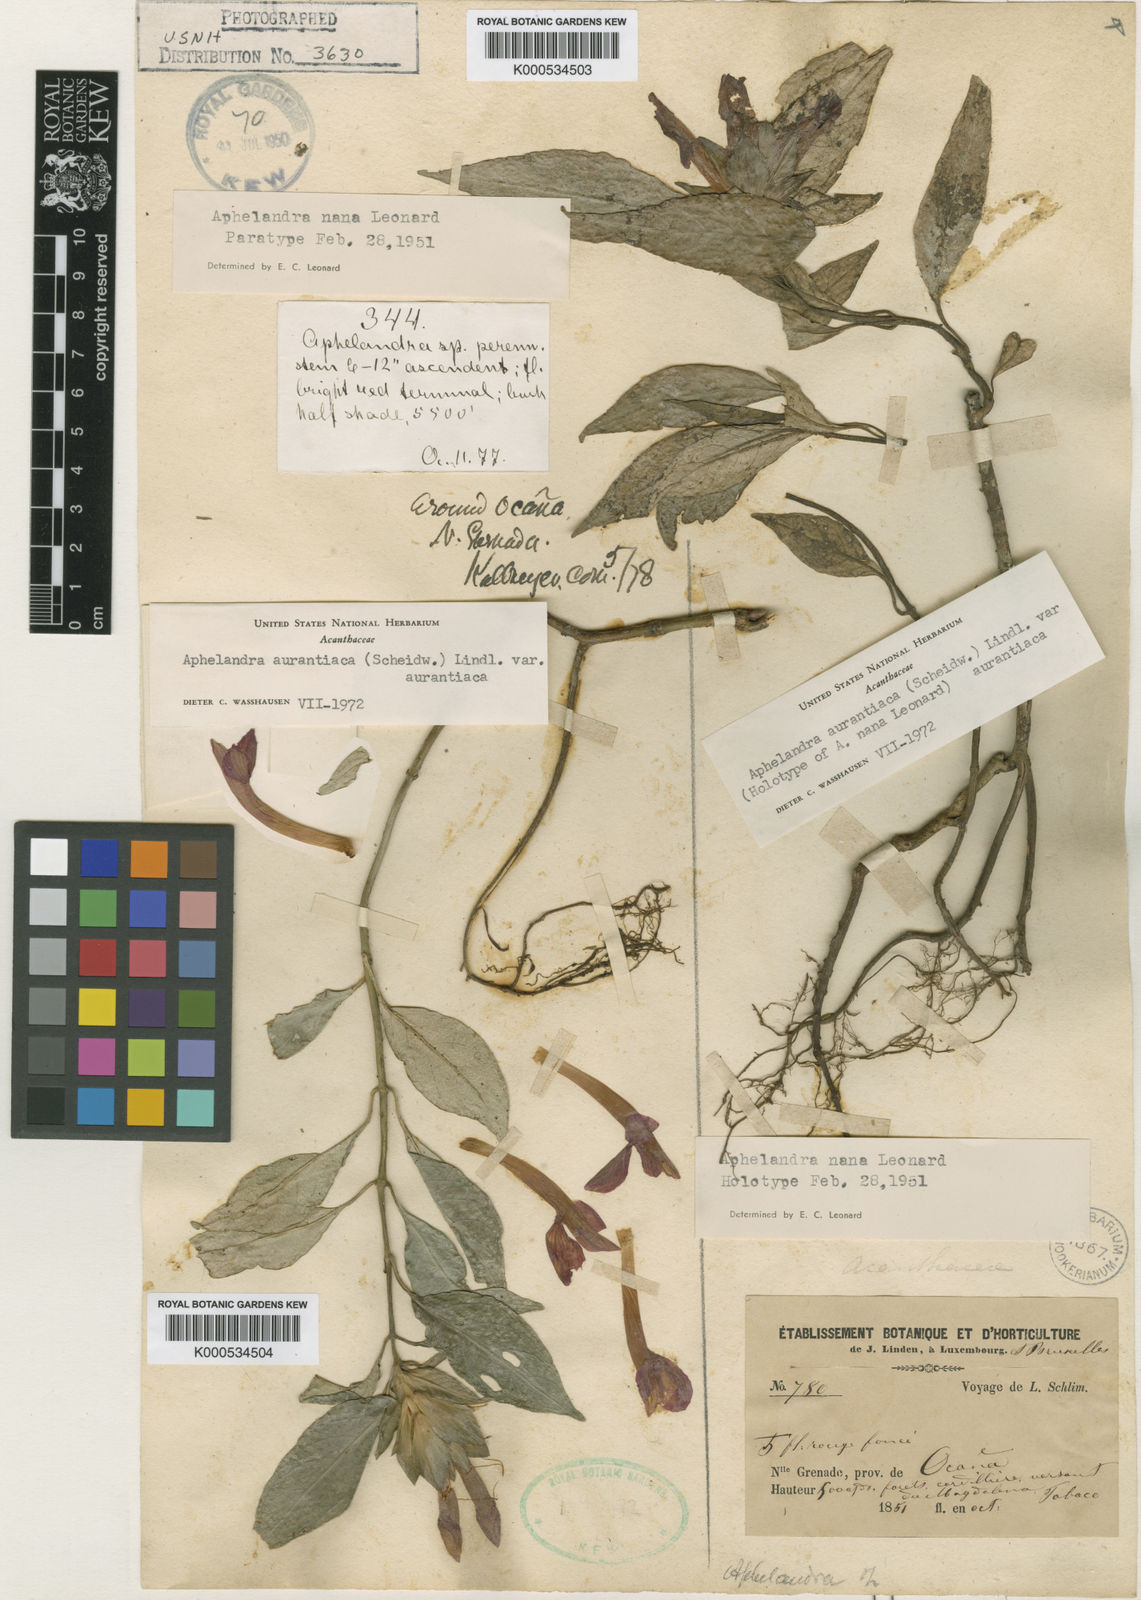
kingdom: Plantae
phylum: Tracheophyta
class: Magnoliopsida
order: Lamiales
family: Acanthaceae
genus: Aphelandra
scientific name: Aphelandra aurantiaca
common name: Fiery spike
